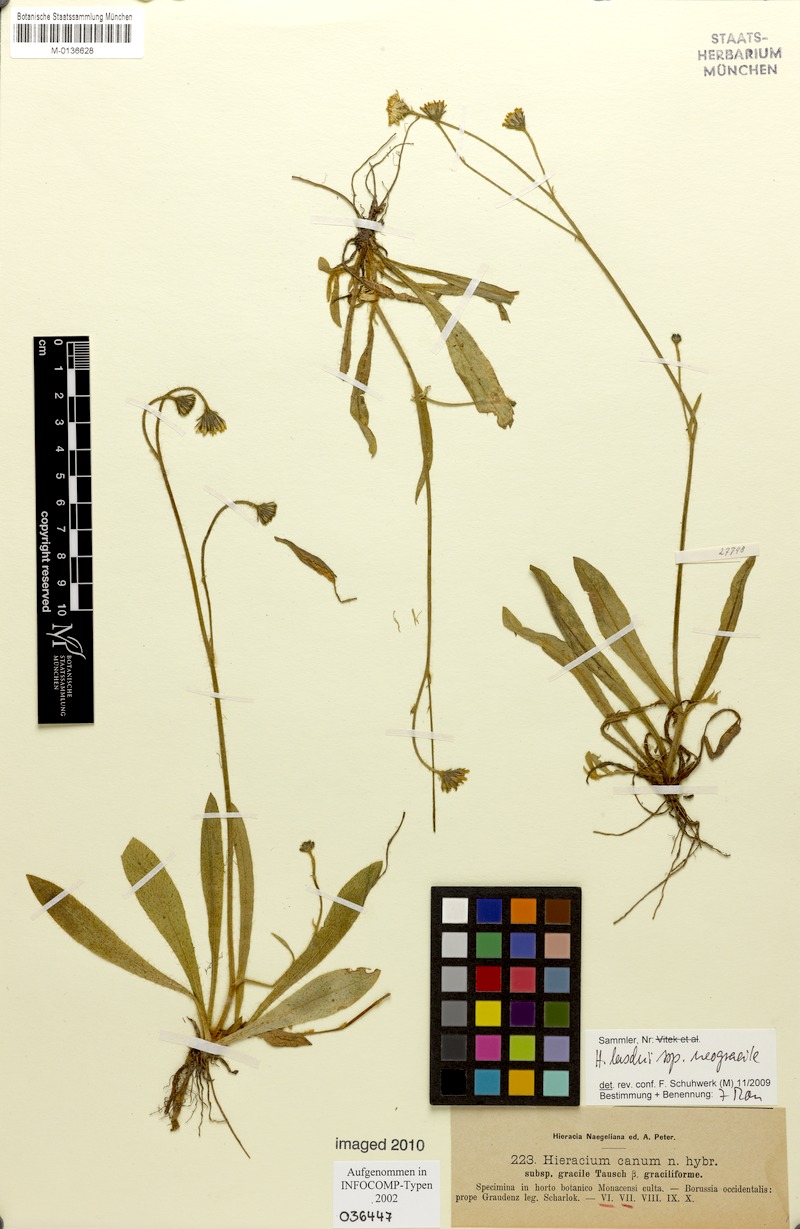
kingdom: Plantae
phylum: Tracheophyta
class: Magnoliopsida
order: Asterales
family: Asteraceae
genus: Pilosella
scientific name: Pilosella acutifolia
